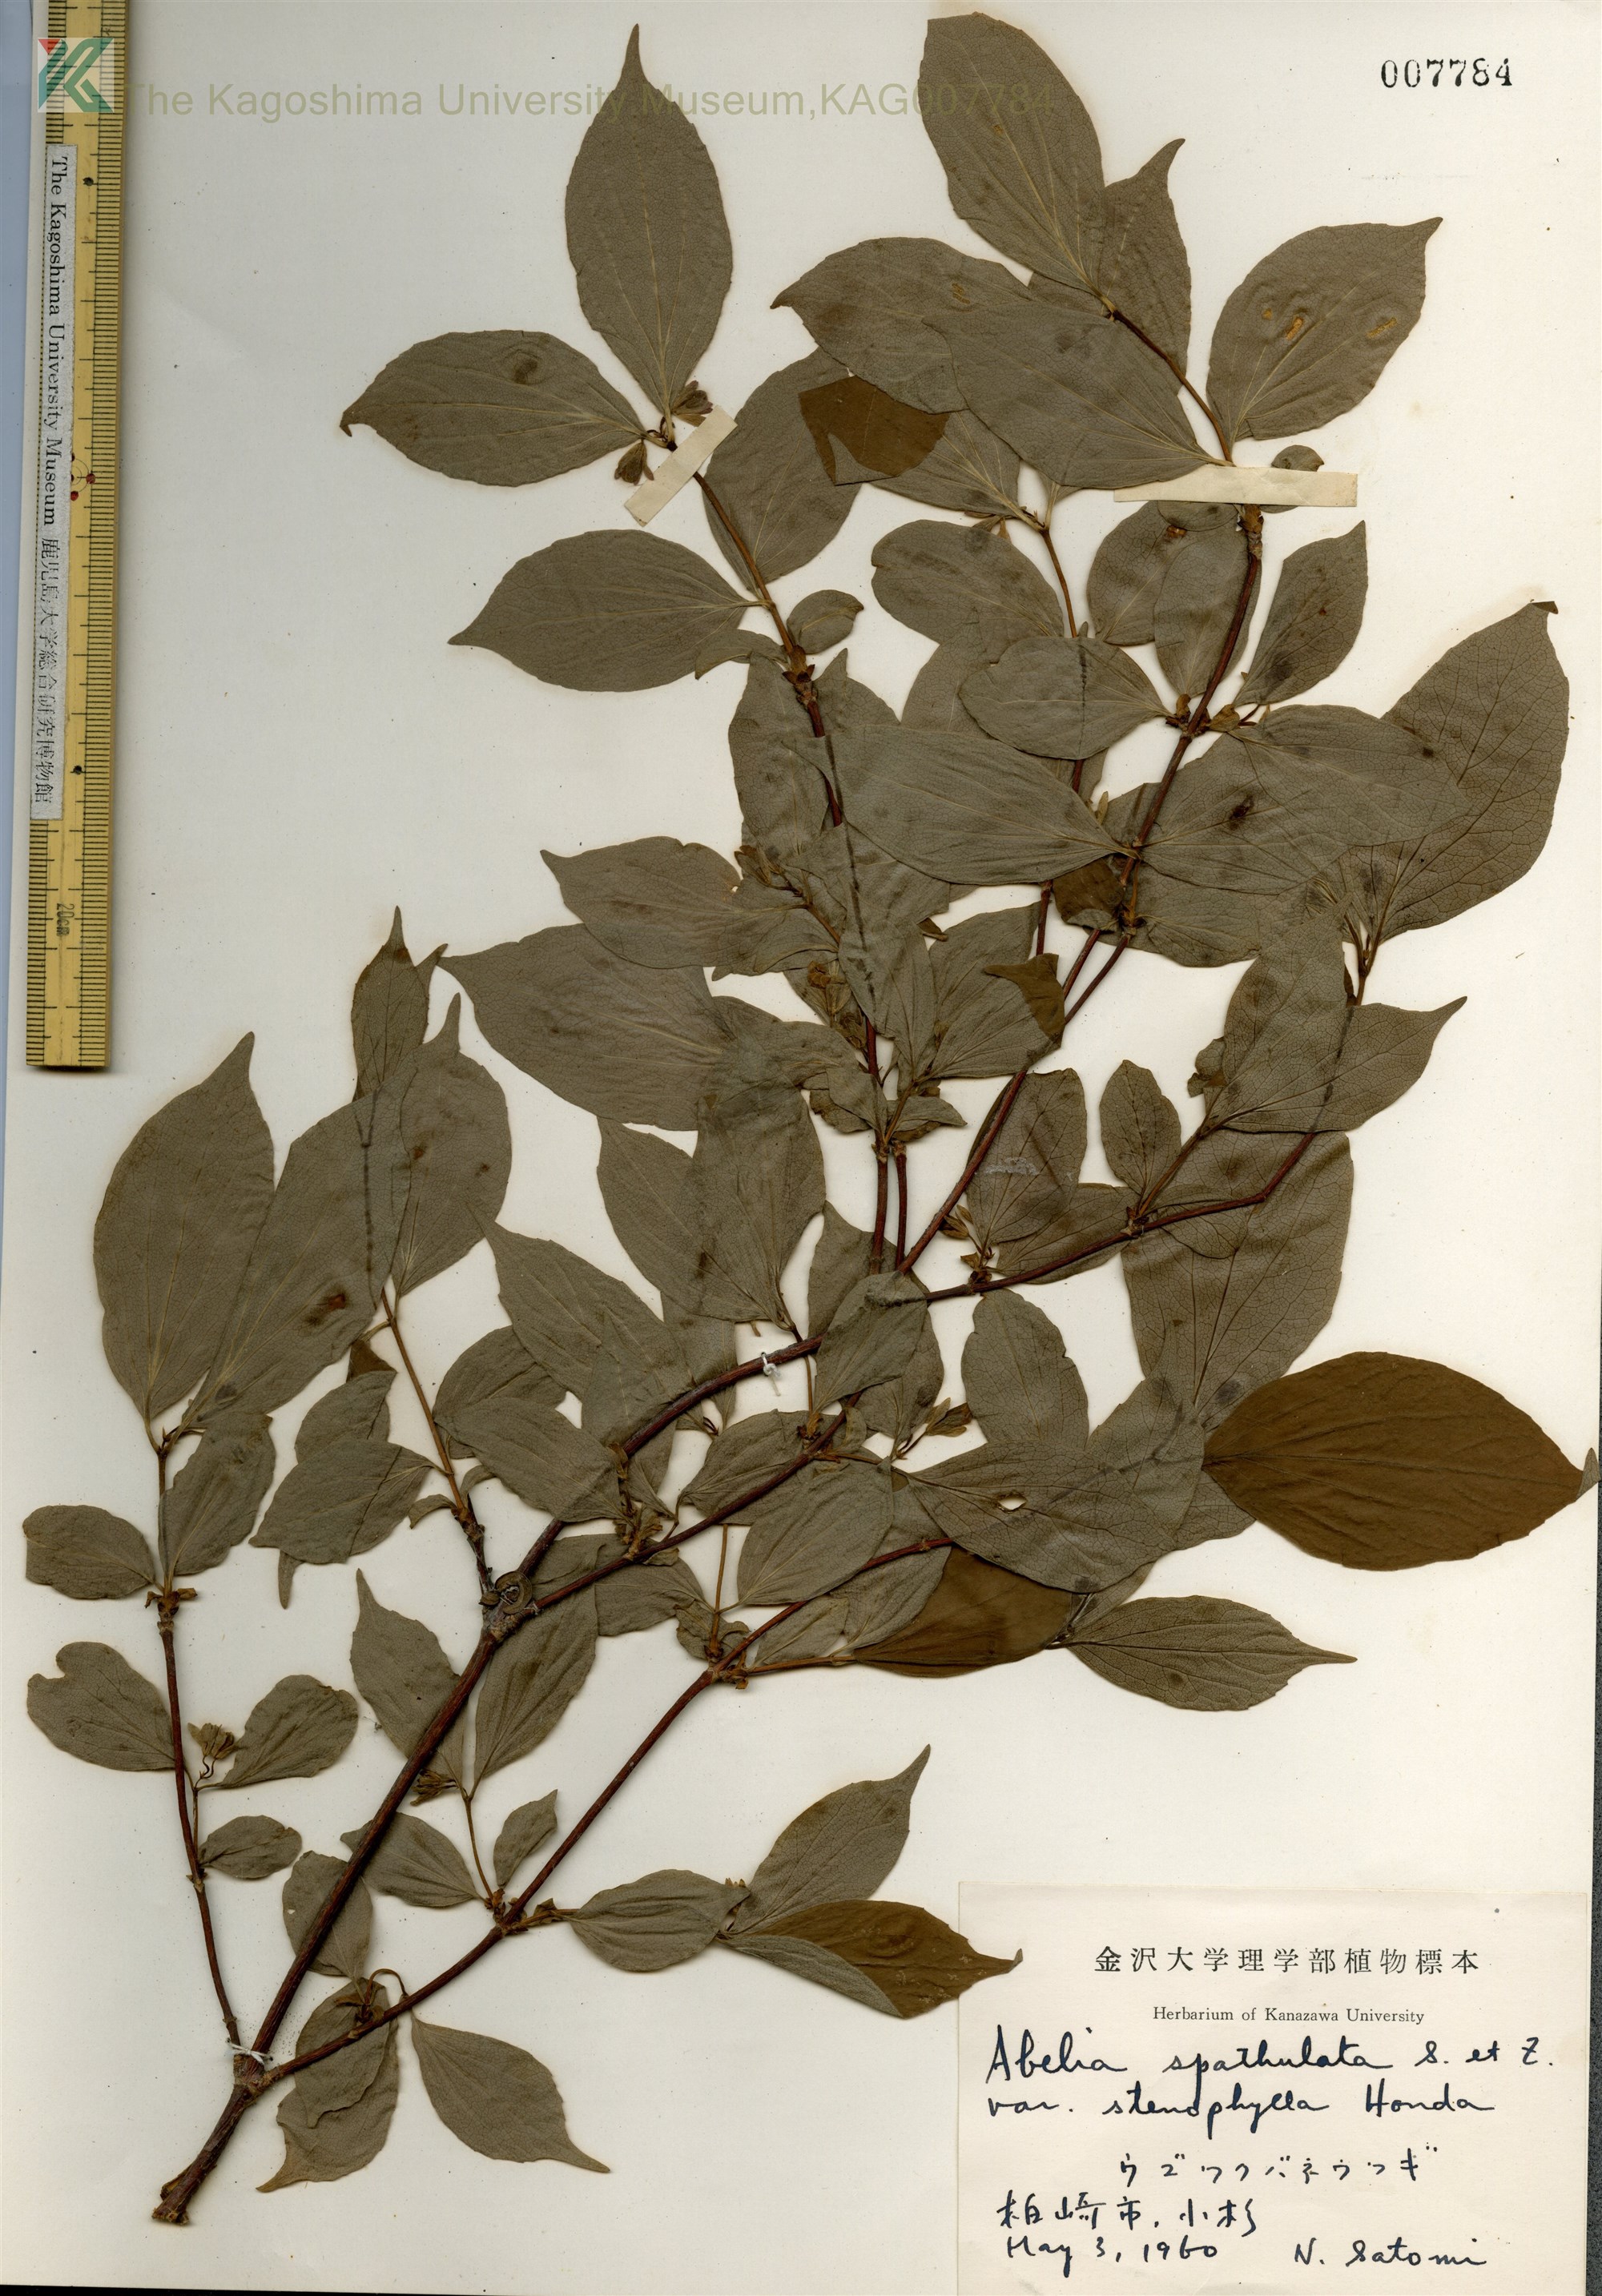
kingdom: Plantae
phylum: Tracheophyta
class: Magnoliopsida
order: Dipsacales
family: Caprifoliaceae
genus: Diabelia
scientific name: Diabelia spathulata
